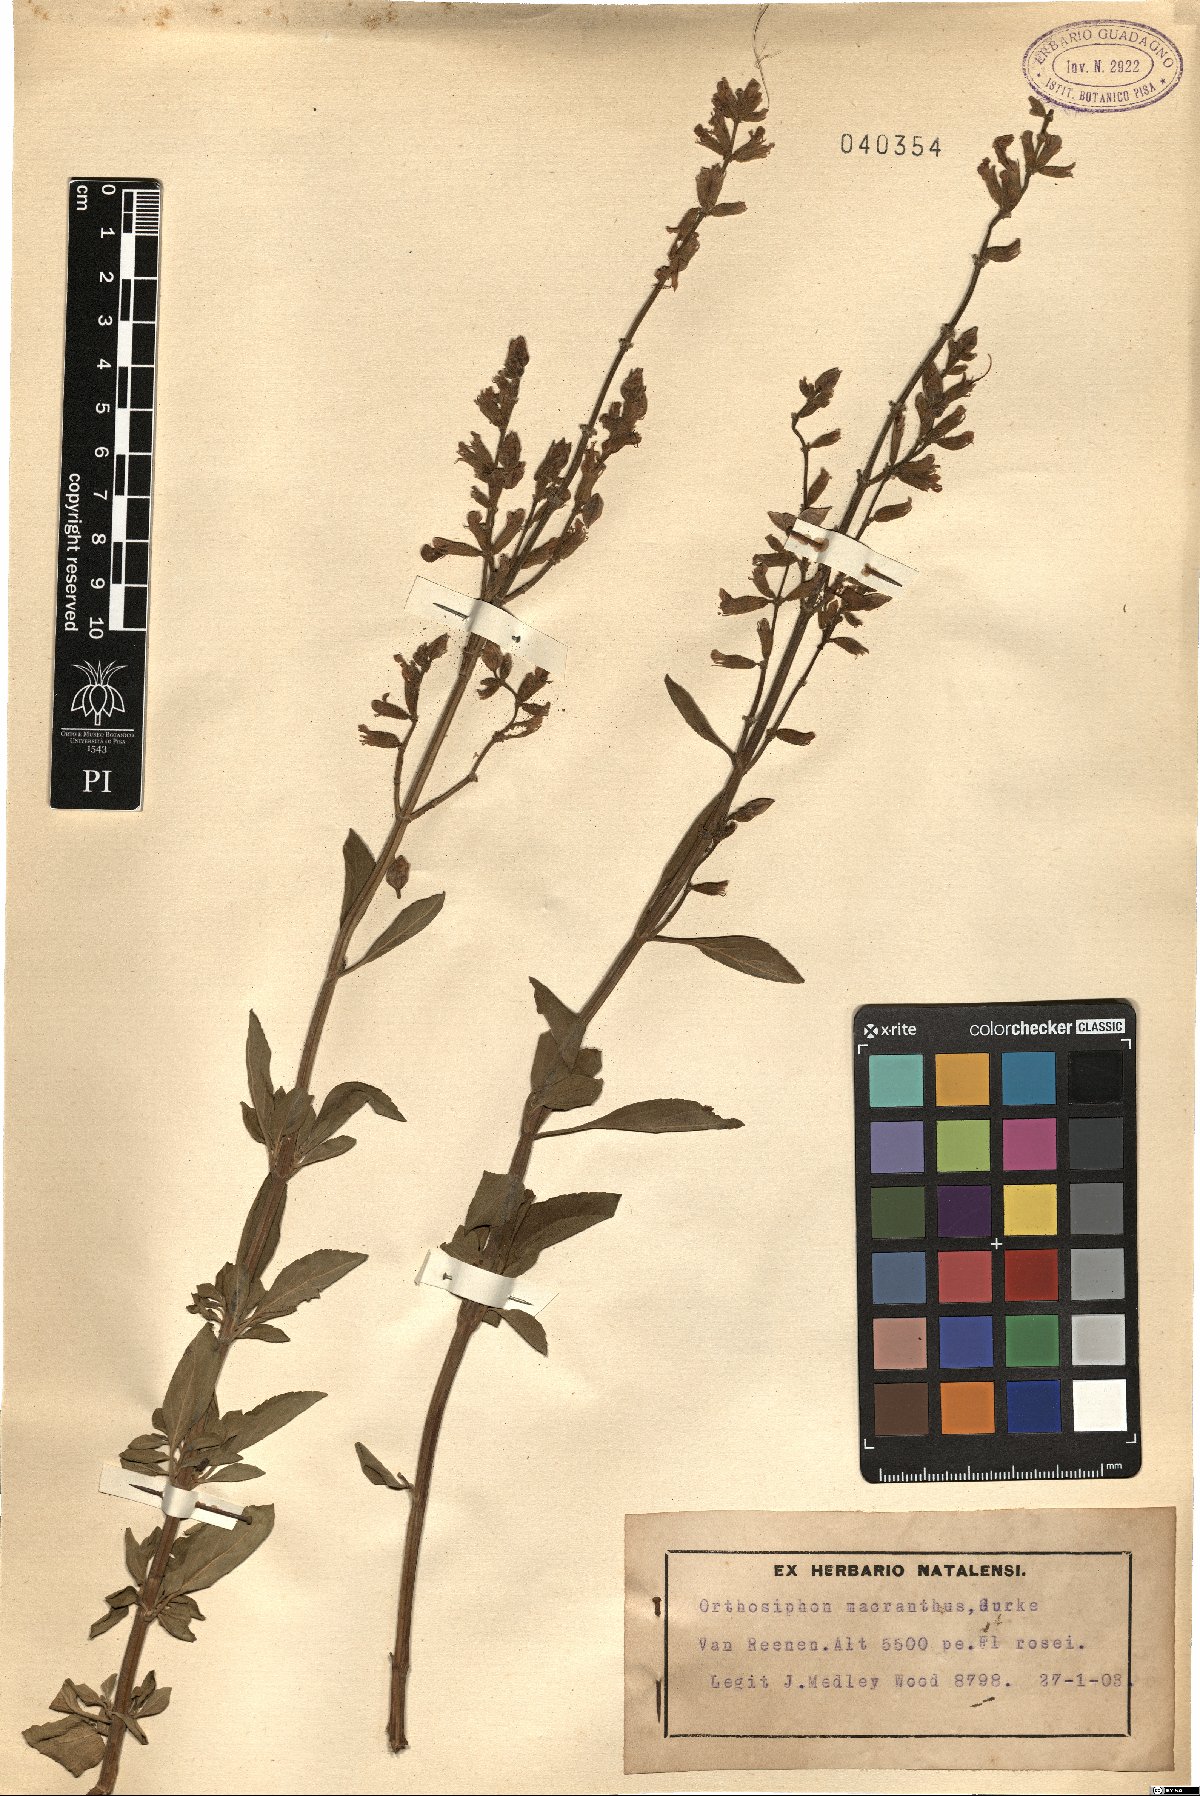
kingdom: Plantae
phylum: Tracheophyta
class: Magnoliopsida
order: Lamiales
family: Lamiaceae
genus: Syncolostemon
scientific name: Syncolostemon macranthus
